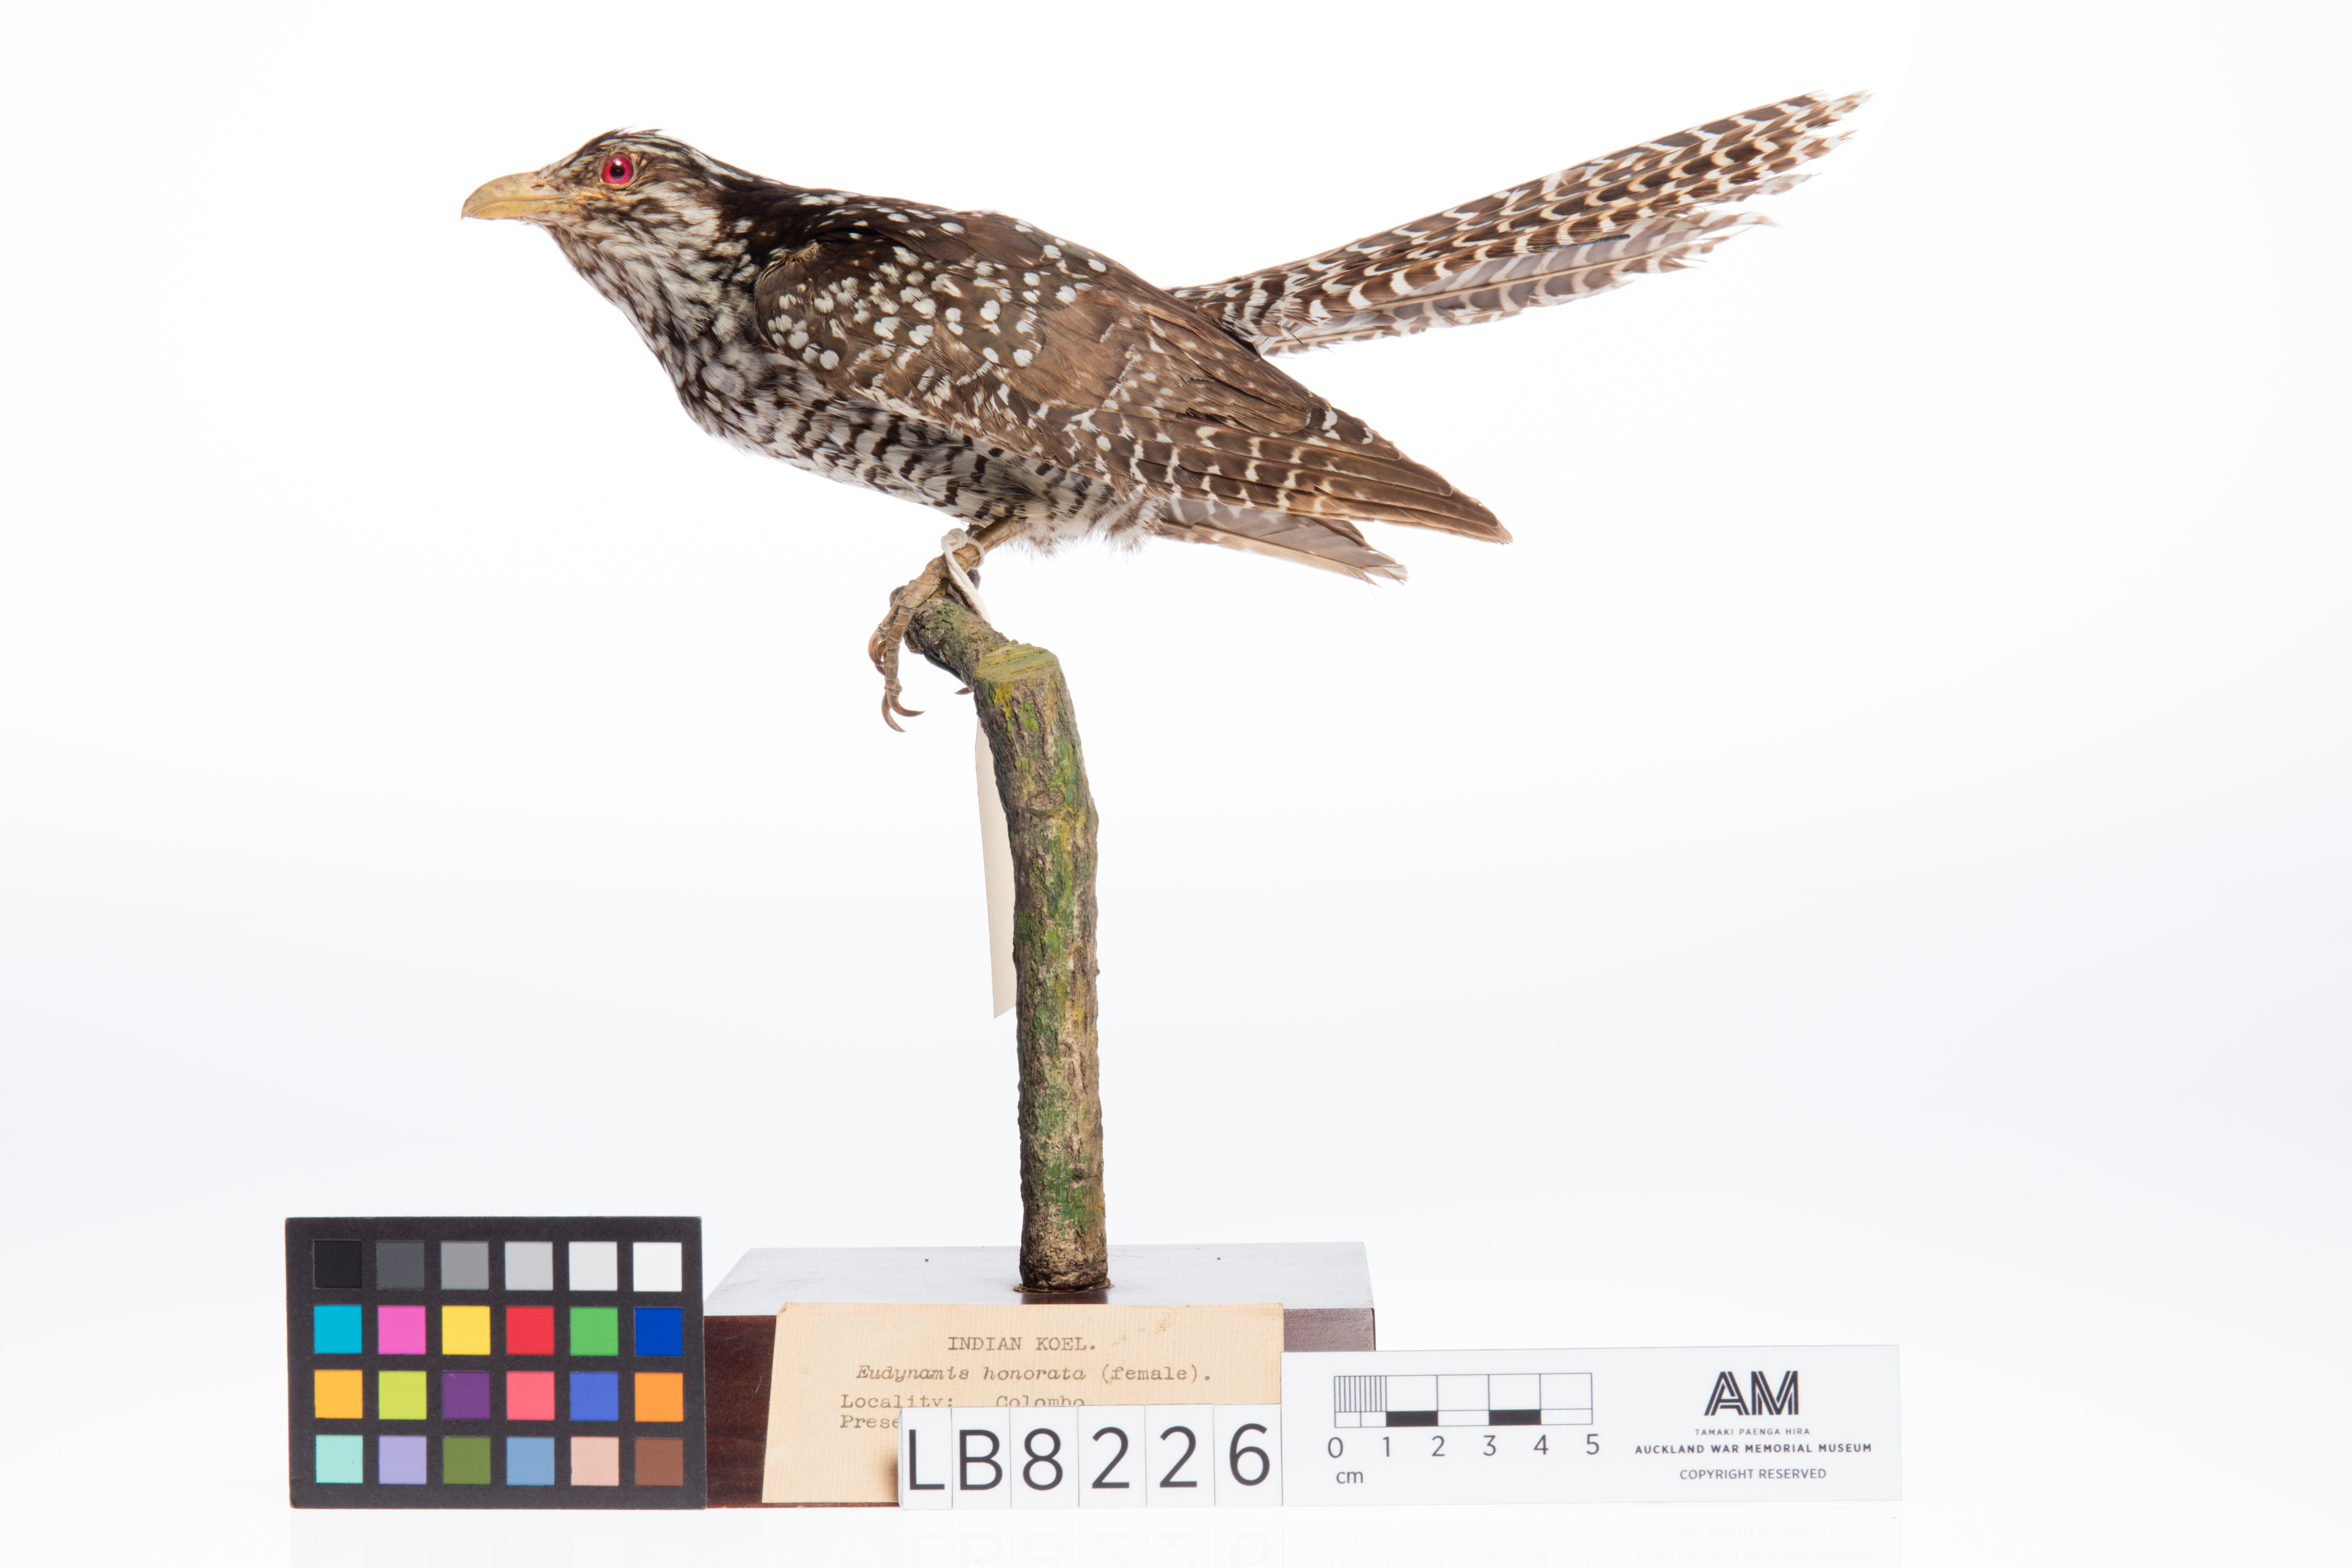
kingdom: Animalia
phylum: Chordata
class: Aves
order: Cuculiformes
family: Cuculidae
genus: Eudynamys
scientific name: Eudynamys scolopaceus
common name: Asian koel
